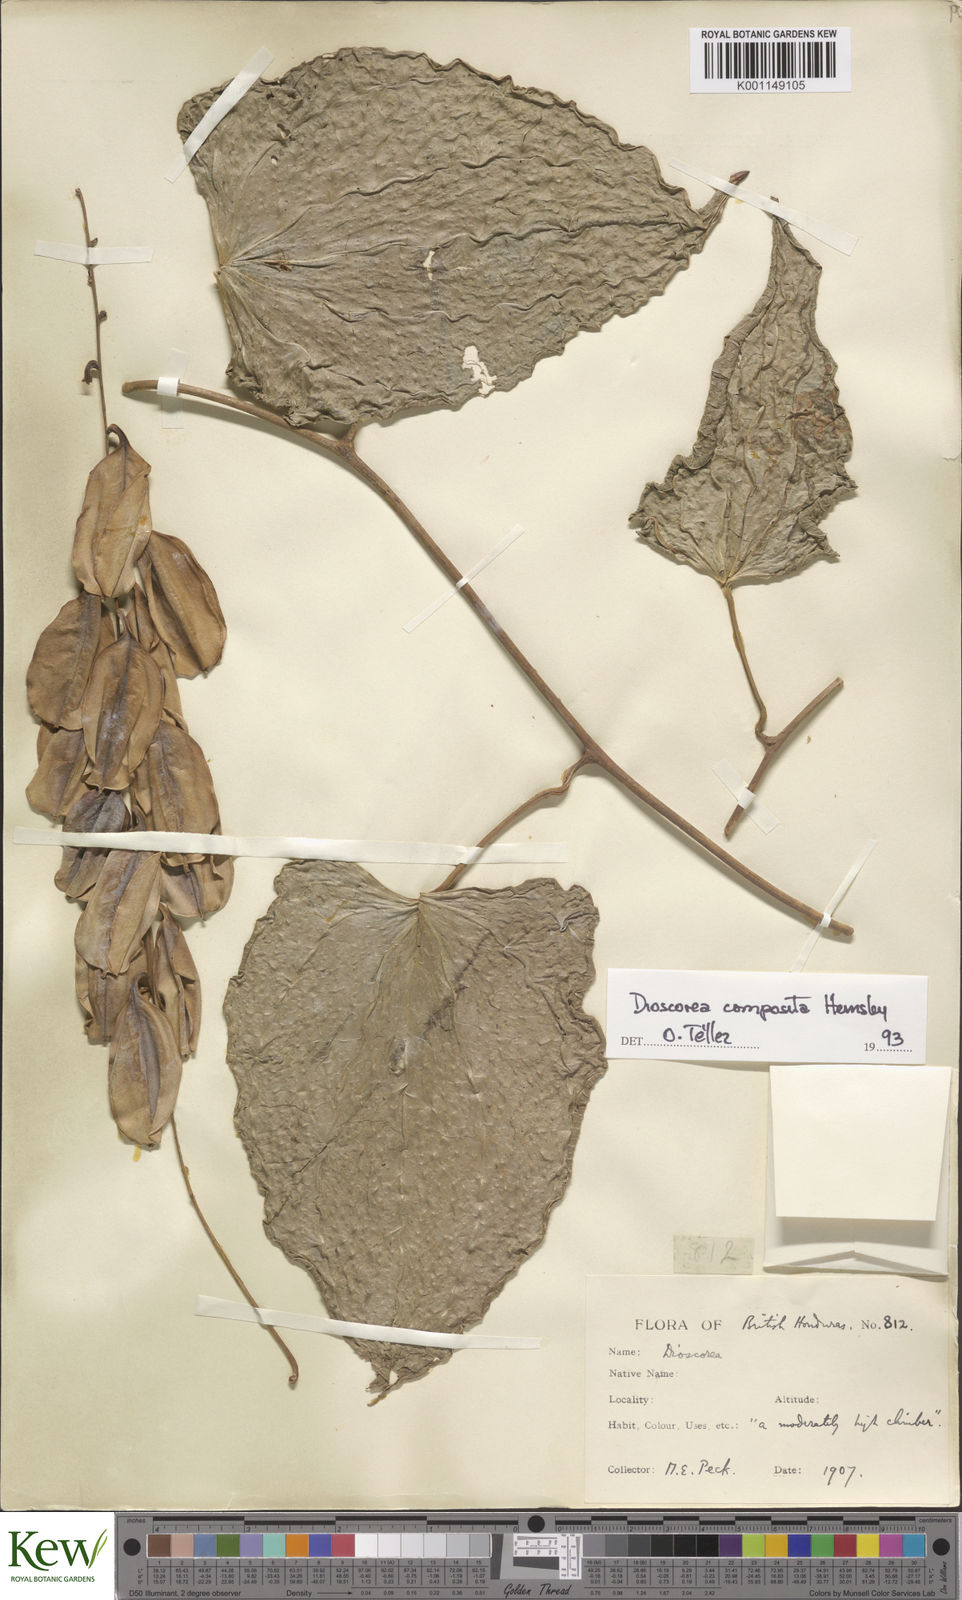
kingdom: Plantae
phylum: Tracheophyta
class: Liliopsida
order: Dioscoreales
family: Dioscoreaceae
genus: Dioscorea
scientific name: Dioscorea
